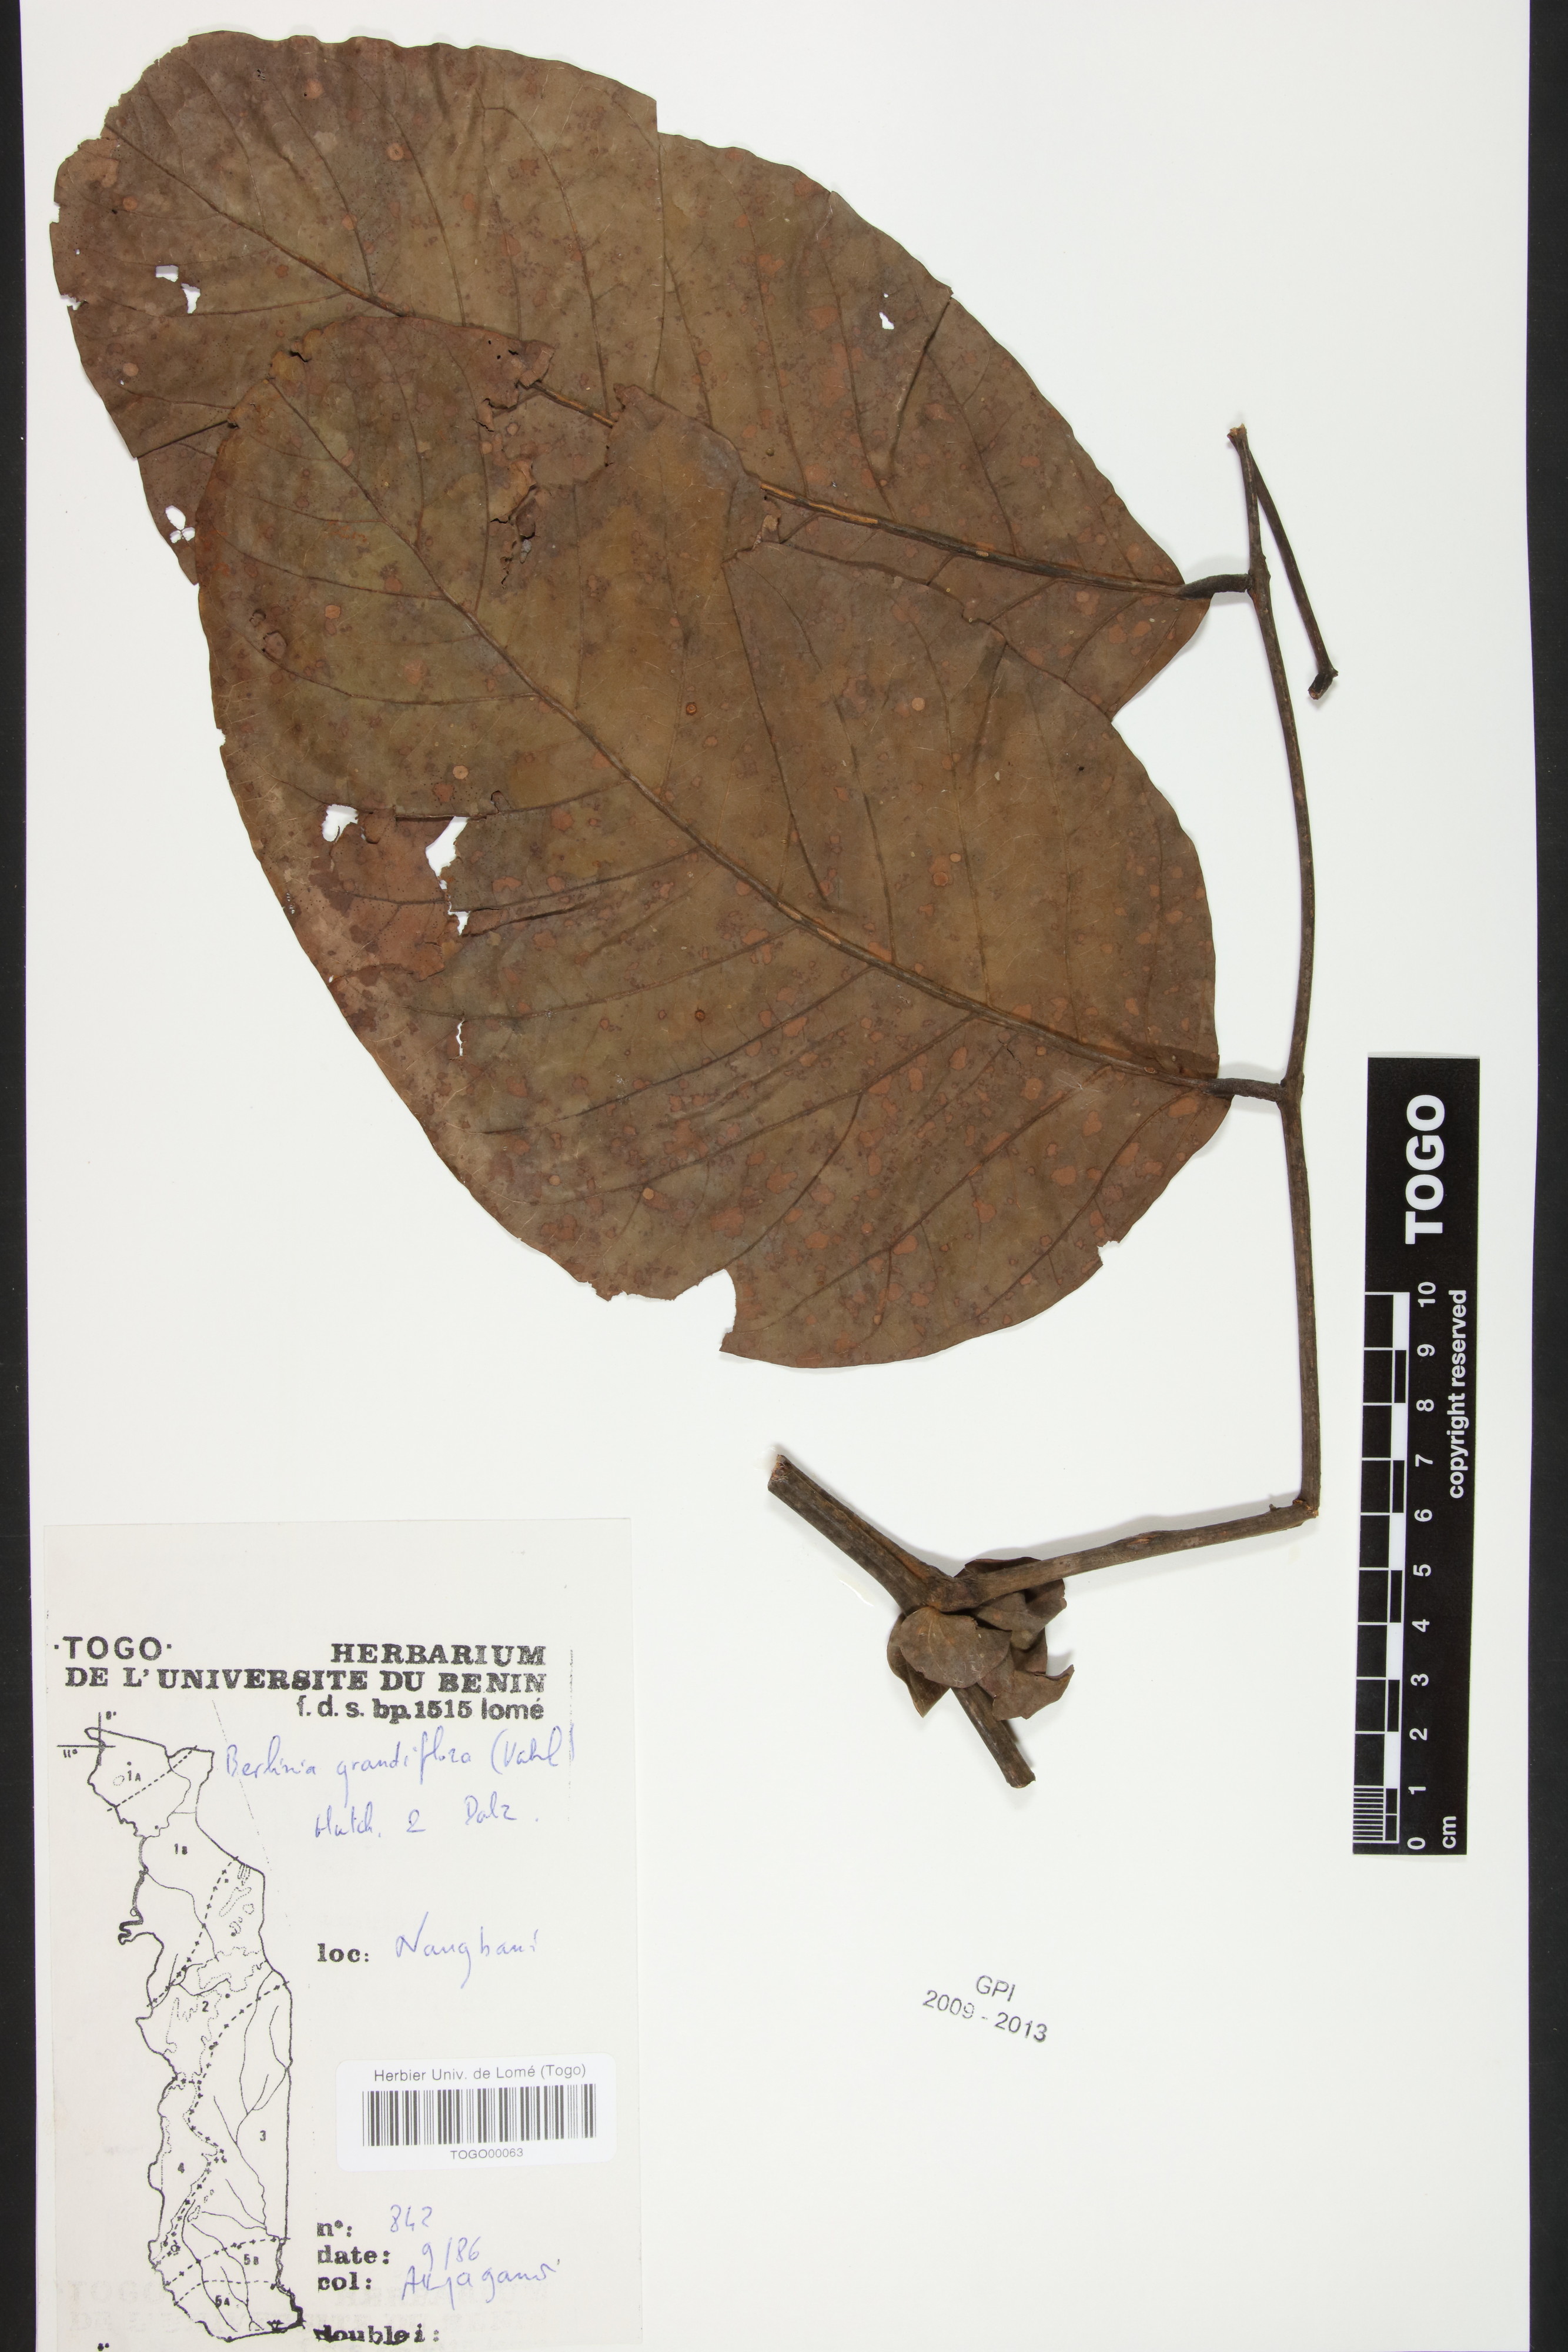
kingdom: Plantae
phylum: Tracheophyta
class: Magnoliopsida
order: Fabales
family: Fabaceae
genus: Berlinia
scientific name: Berlinia grandiflora
